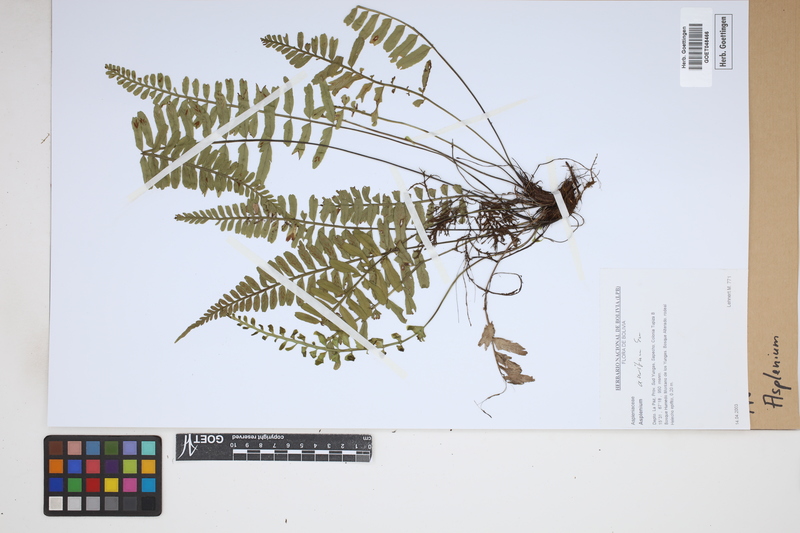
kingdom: Plantae
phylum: Tracheophyta
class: Polypodiopsida
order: Polypodiales
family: Aspleniaceae
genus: Asplenium
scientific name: Asplenium
